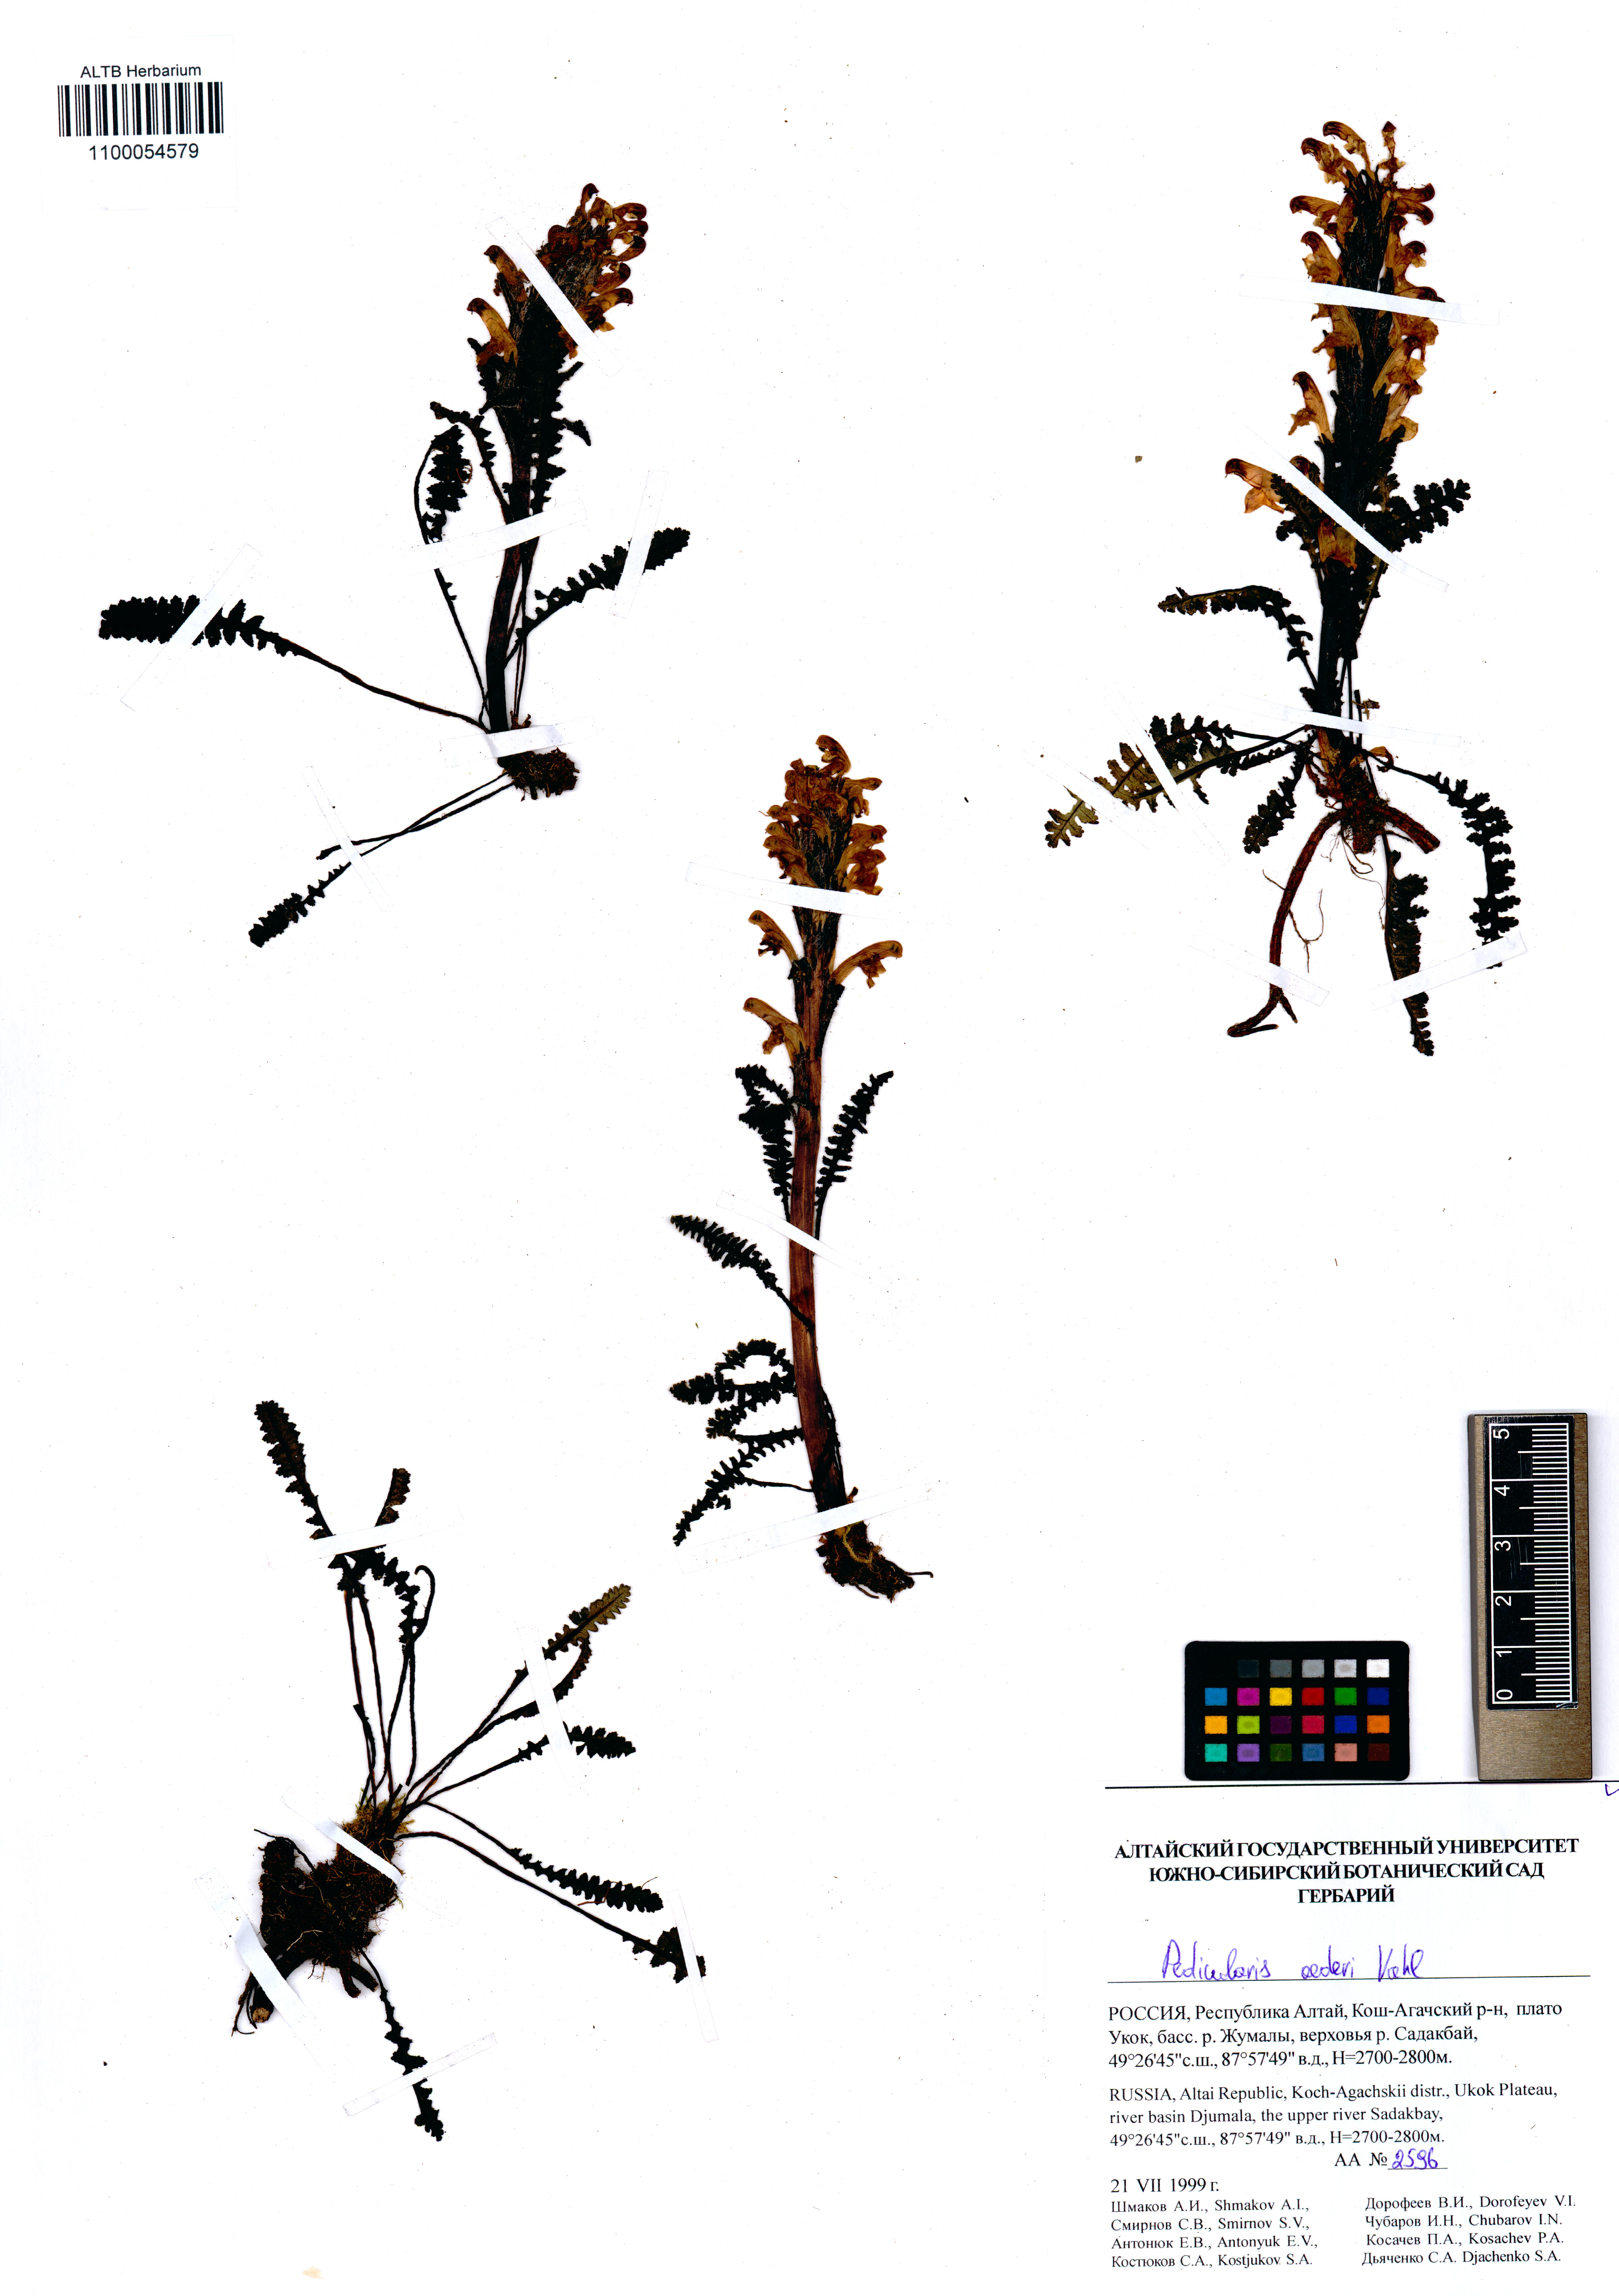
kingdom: Plantae
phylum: Tracheophyta
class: Magnoliopsida
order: Lamiales
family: Orobanchaceae
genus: Pedicularis
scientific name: Pedicularis oederi
